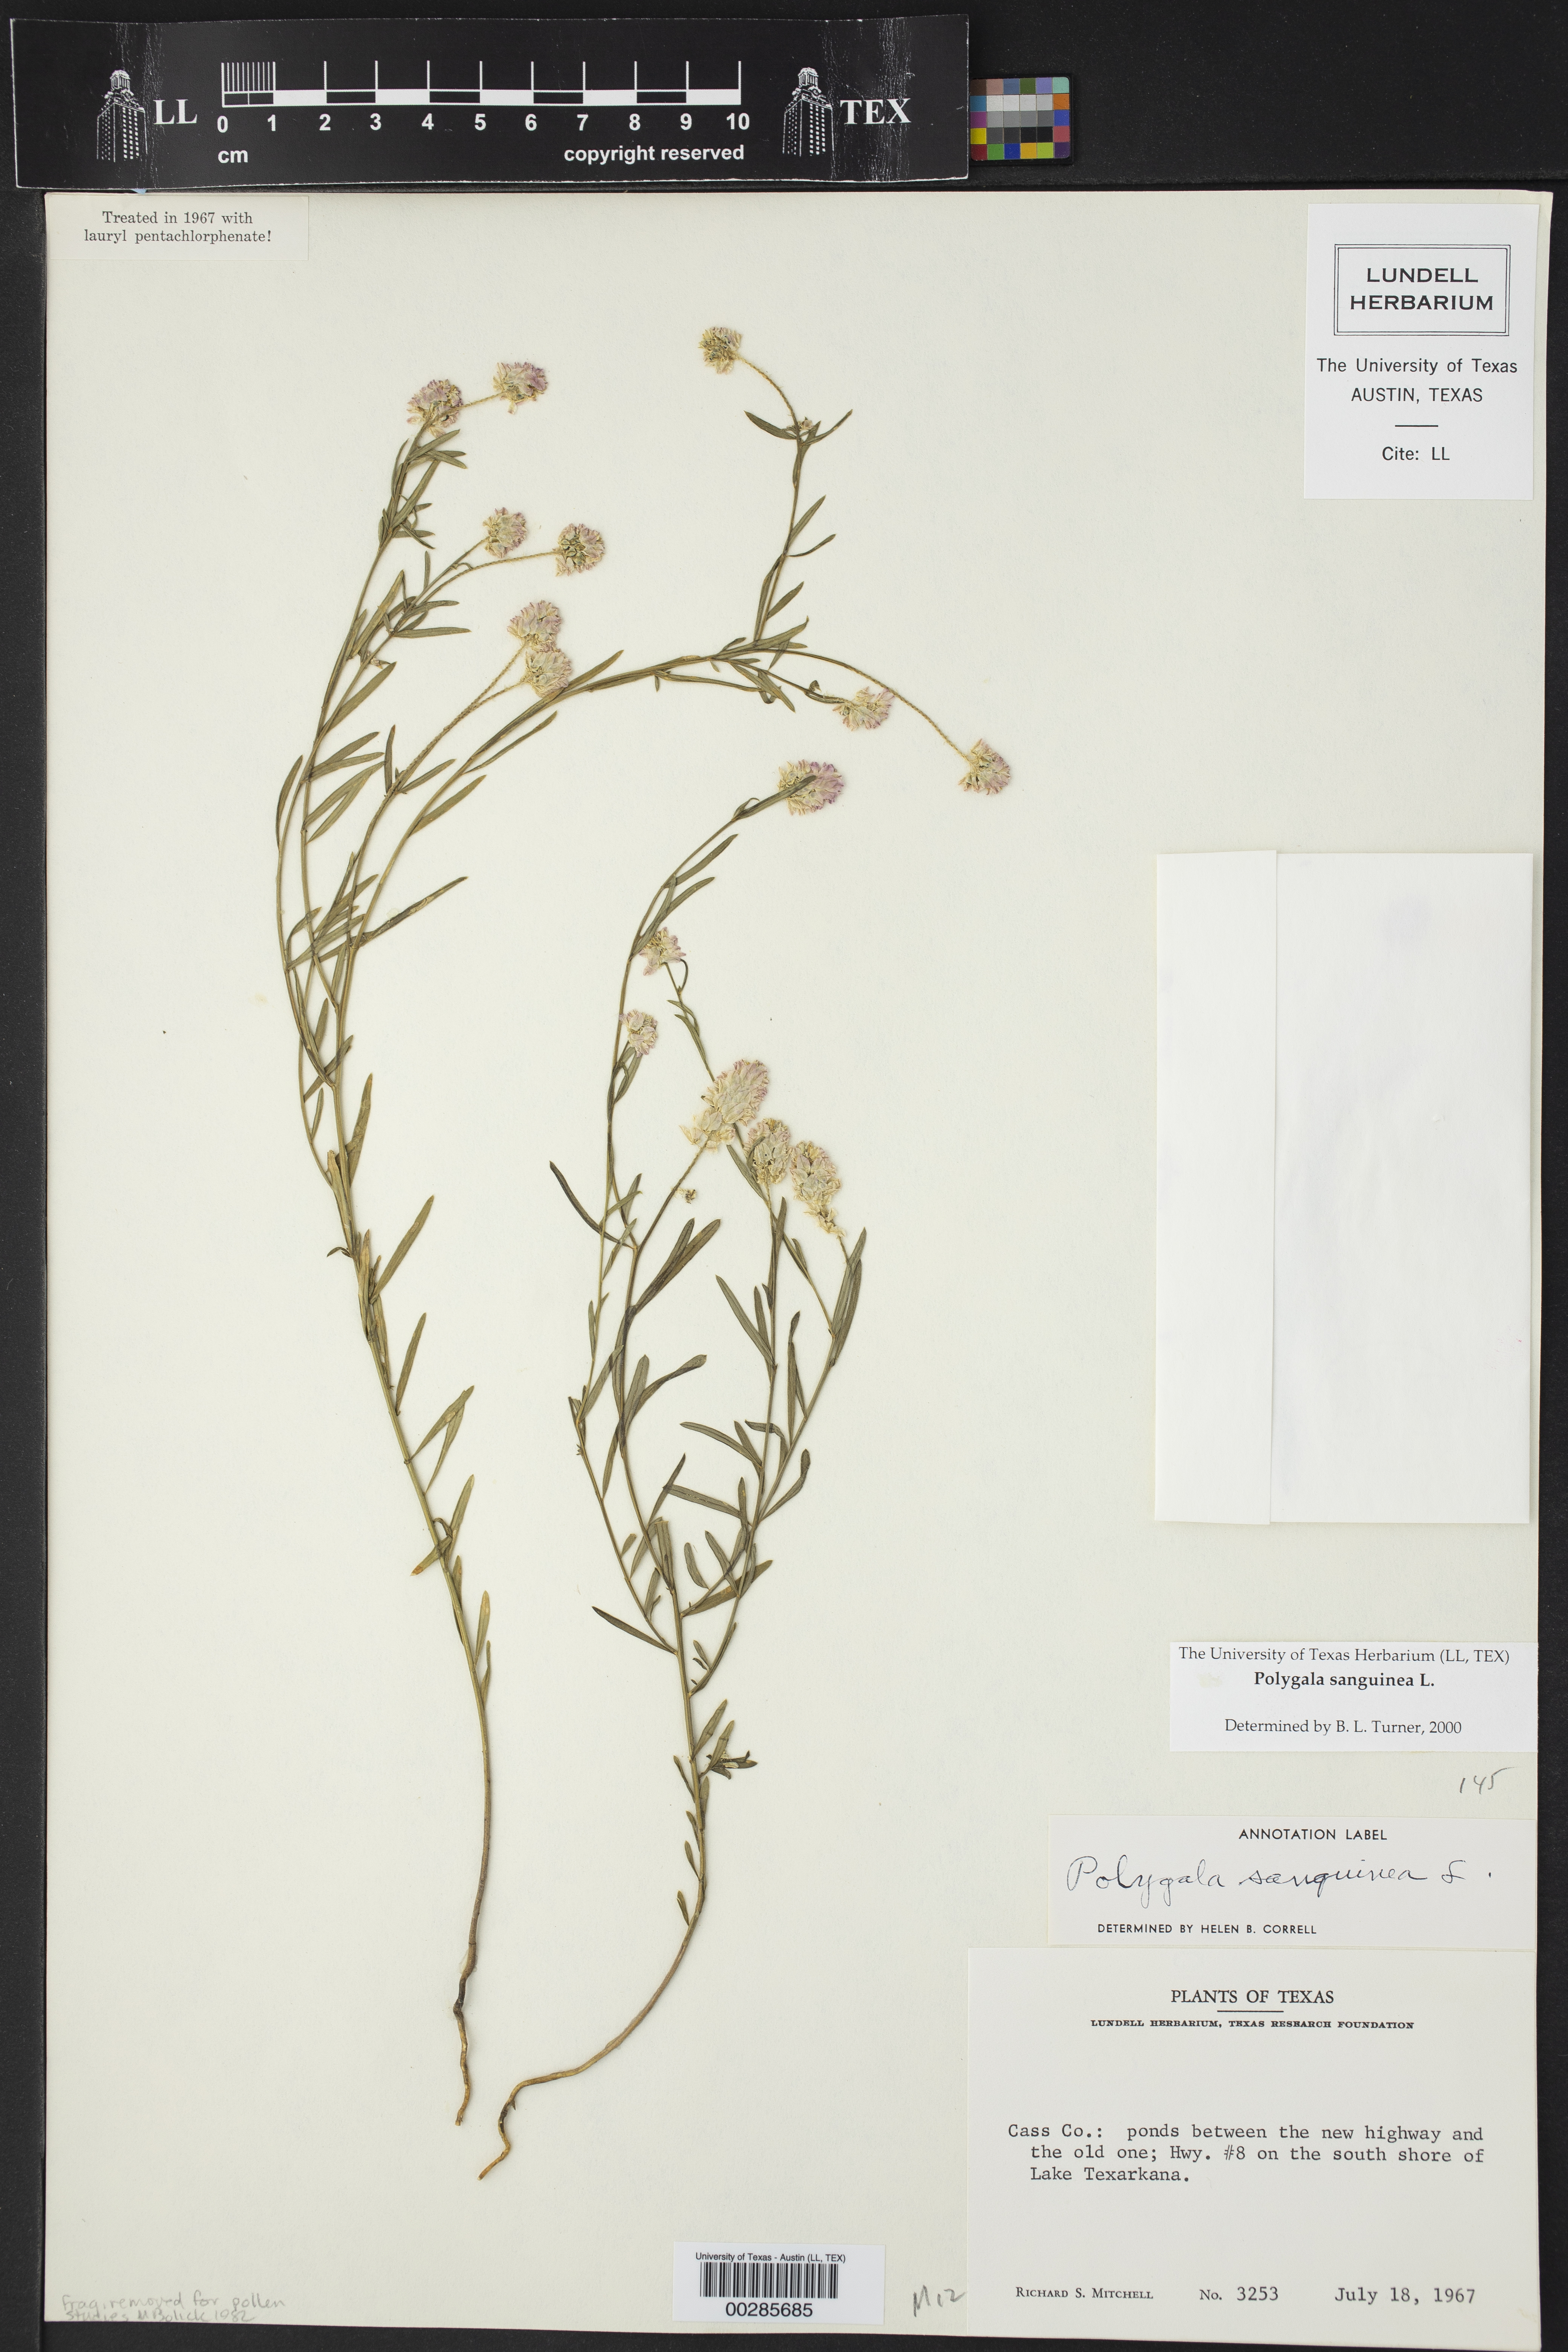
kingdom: Plantae
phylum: Tracheophyta
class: Magnoliopsida
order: Fabales
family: Polygalaceae
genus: Polygala
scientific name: Polygala sanguinea
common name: Blood milkwort
